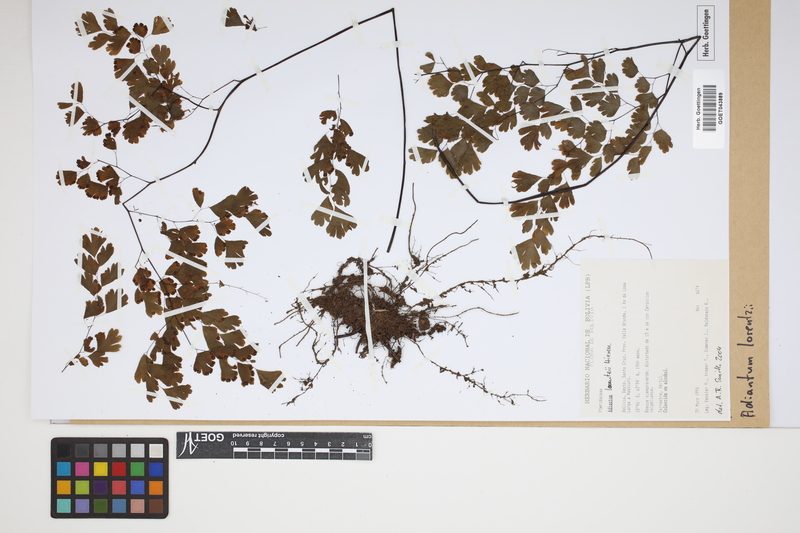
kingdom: Plantae
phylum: Tracheophyta
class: Polypodiopsida
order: Polypodiales
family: Pteridaceae
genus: Adiantum
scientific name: Adiantum lorentzii
